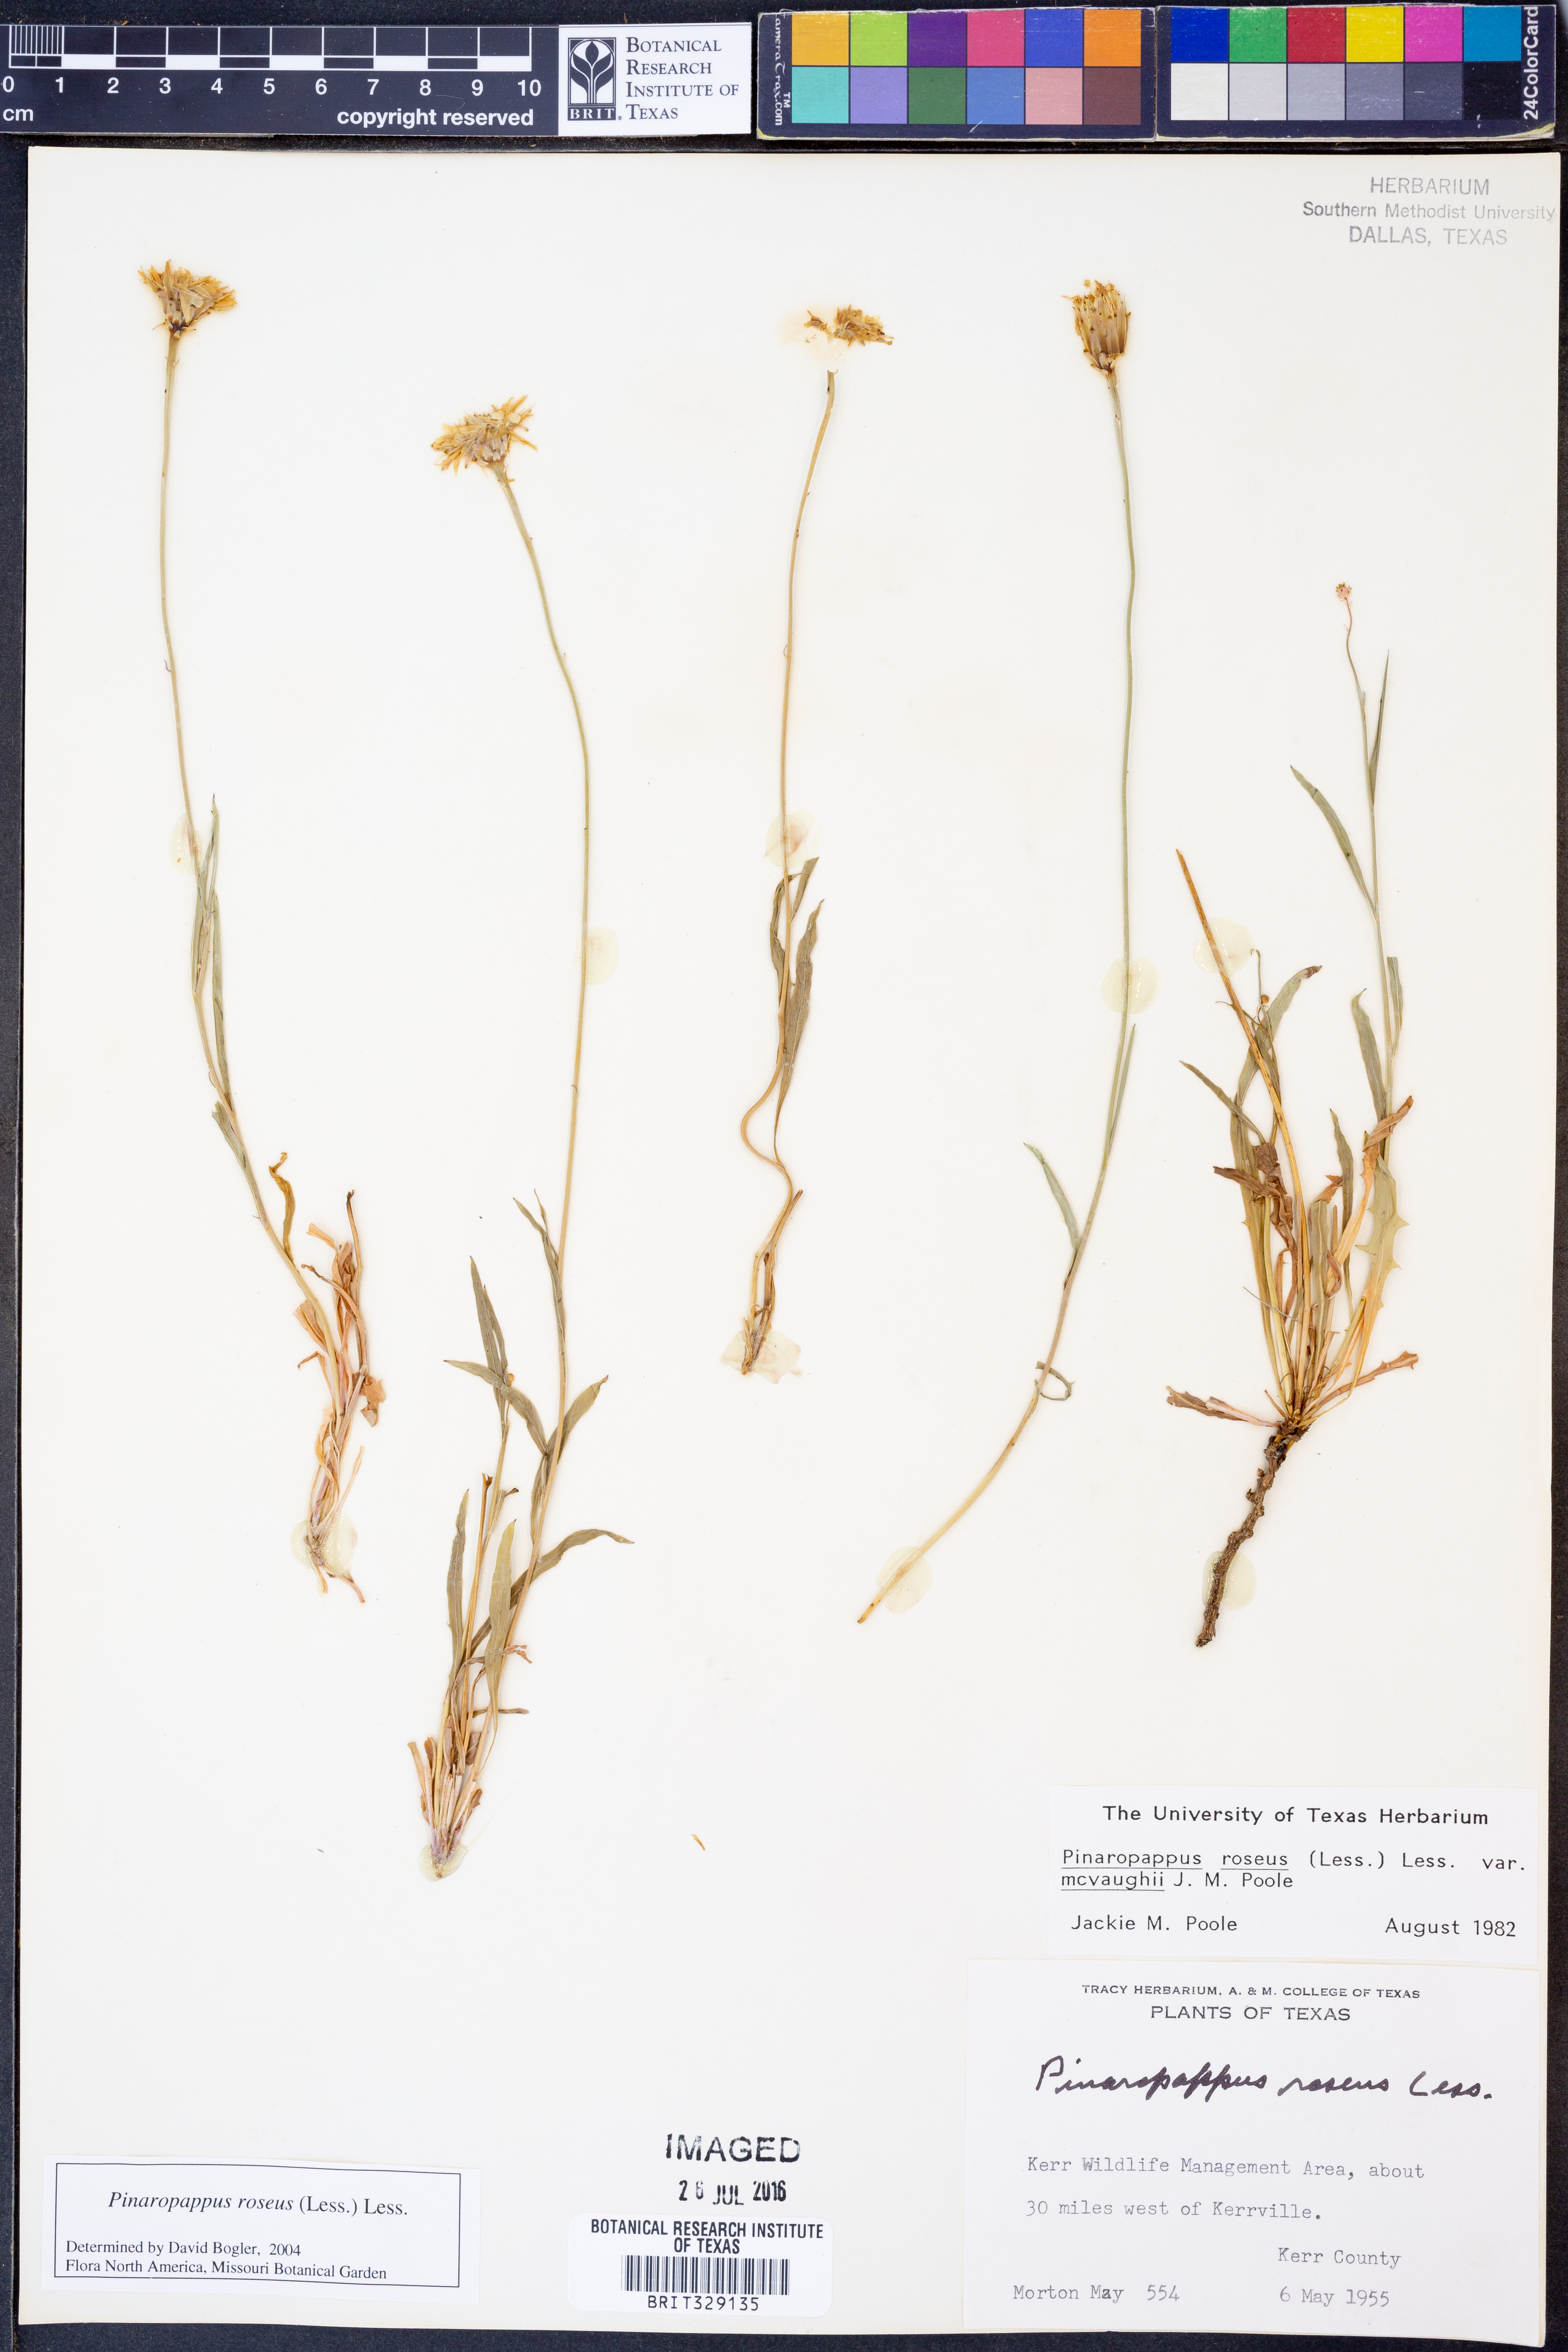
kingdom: Plantae
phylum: Tracheophyta
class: Magnoliopsida
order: Asterales
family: Asteraceae
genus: Pinaropappus
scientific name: Pinaropappus roseus
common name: Rock-lettuce
